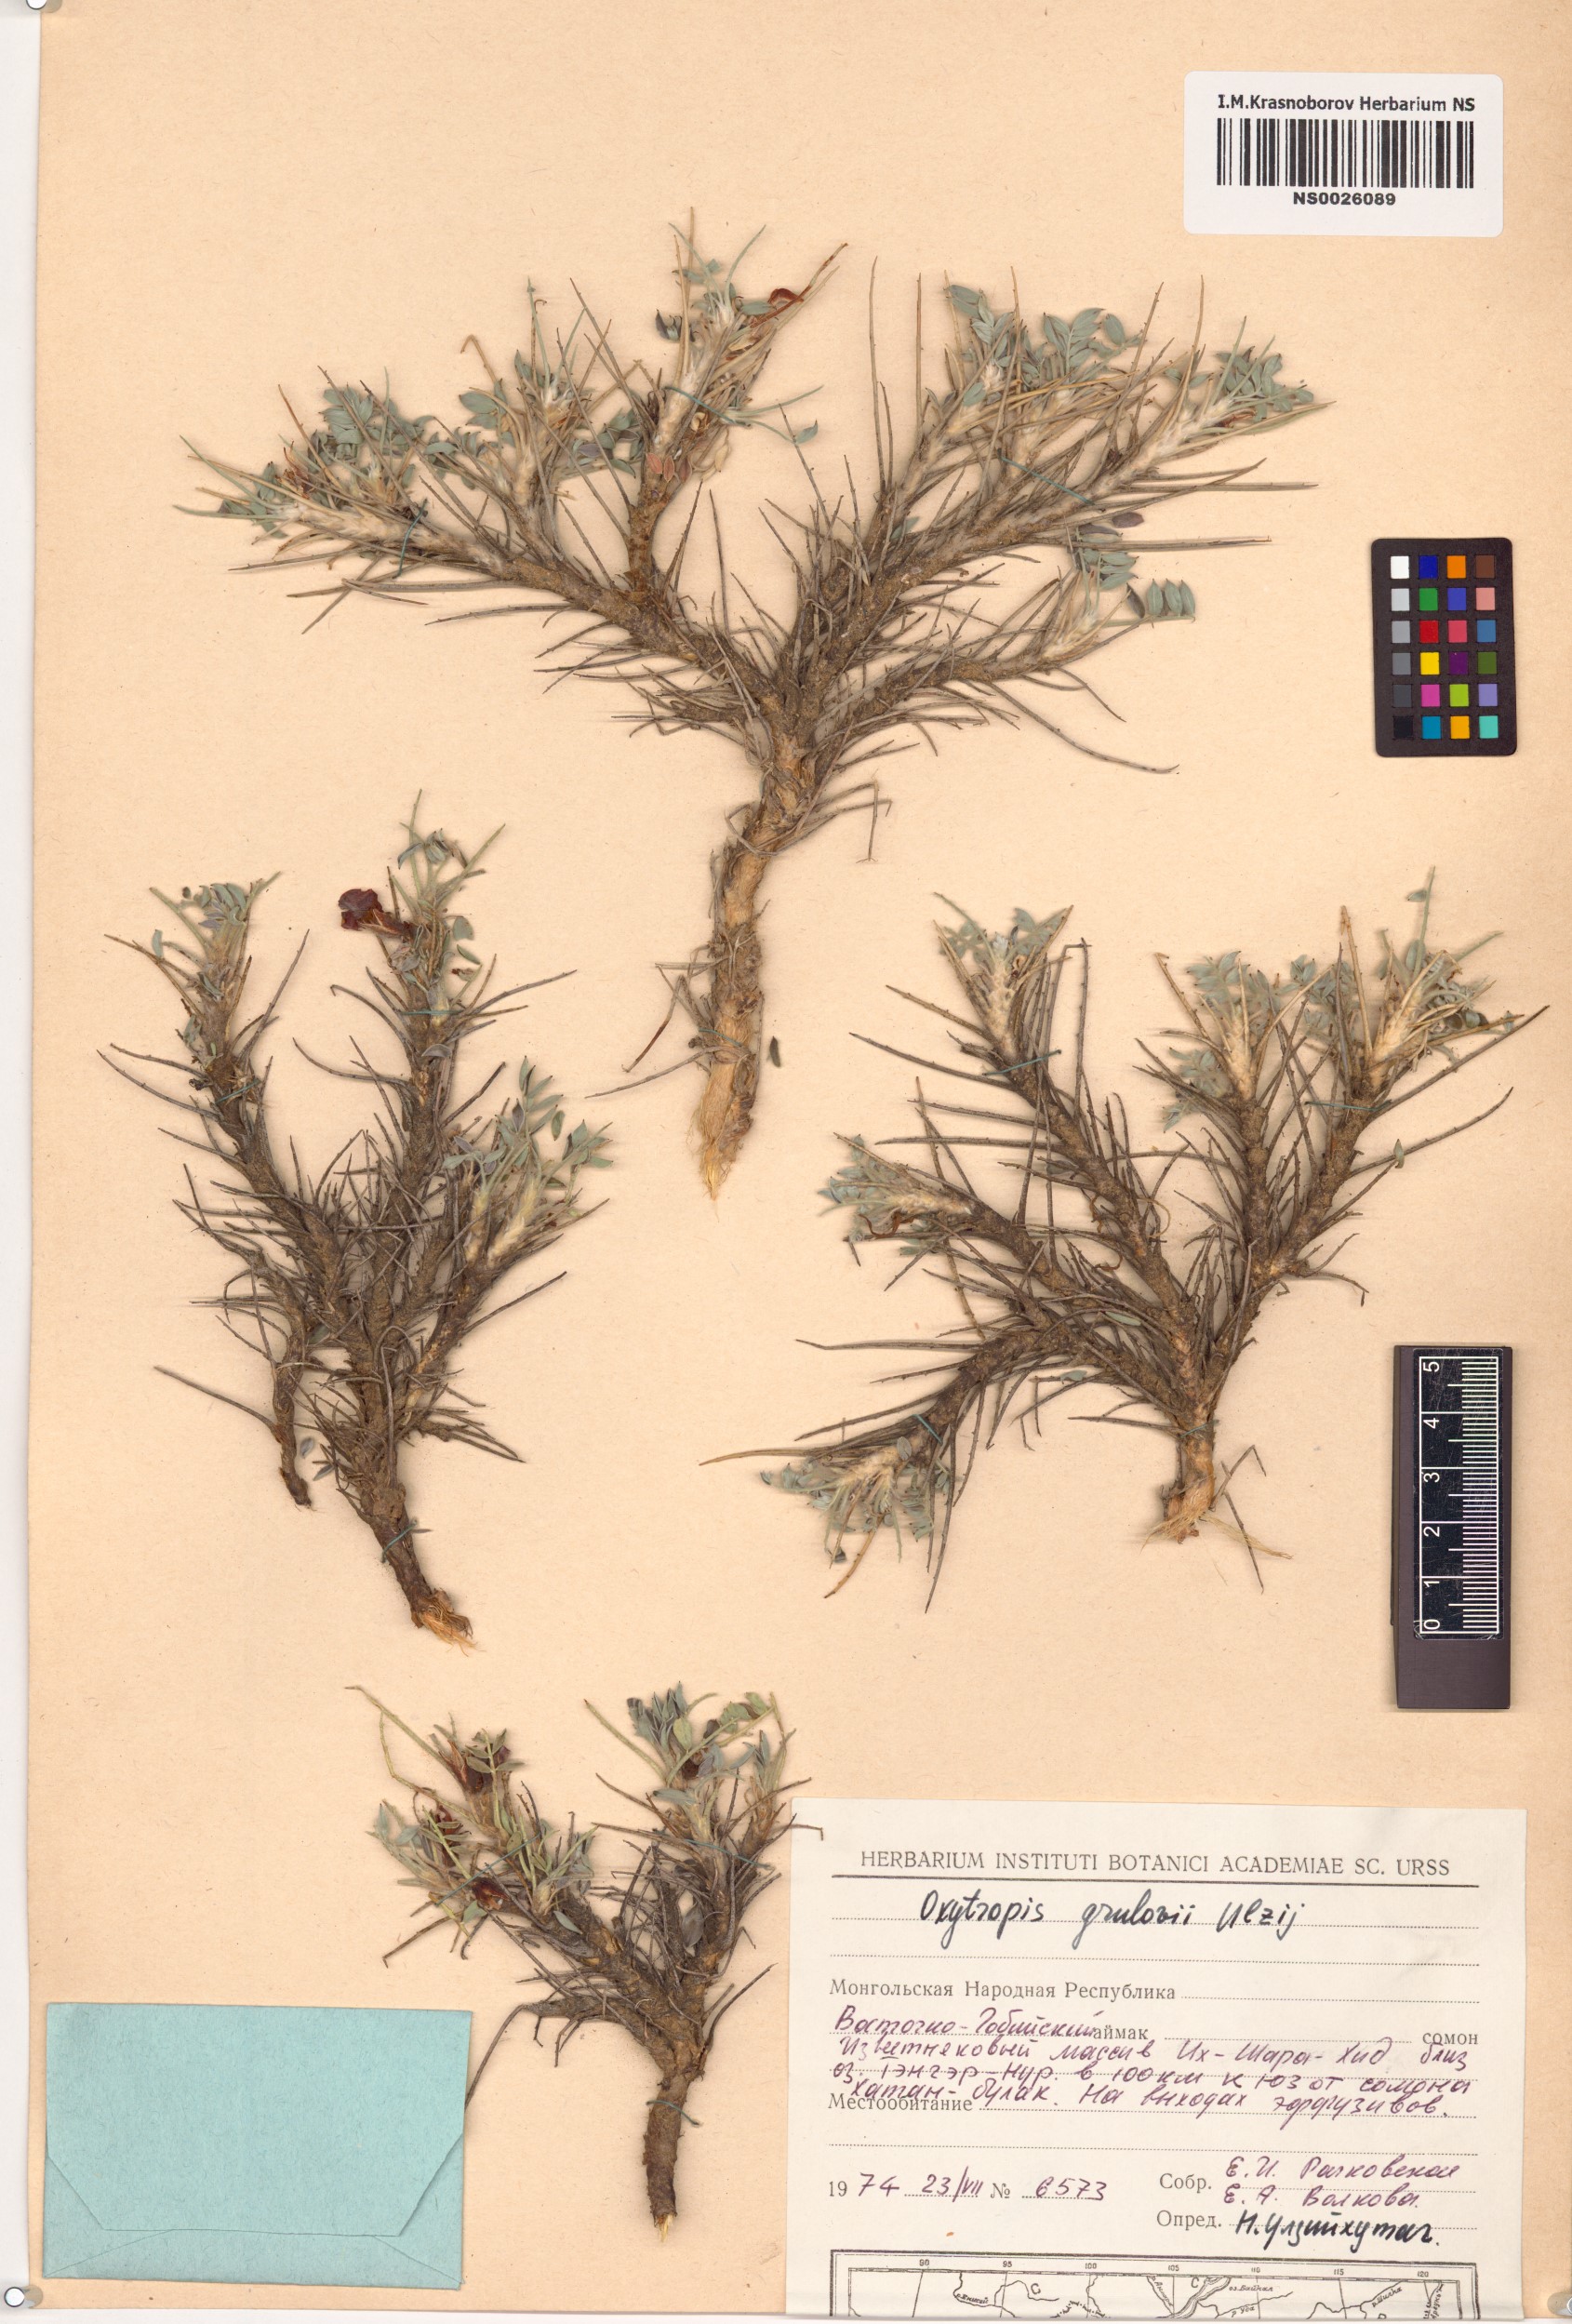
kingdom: Plantae
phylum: Tracheophyta
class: Magnoliopsida
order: Fabales
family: Fabaceae
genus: Chesneya
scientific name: Chesneya macrantha
